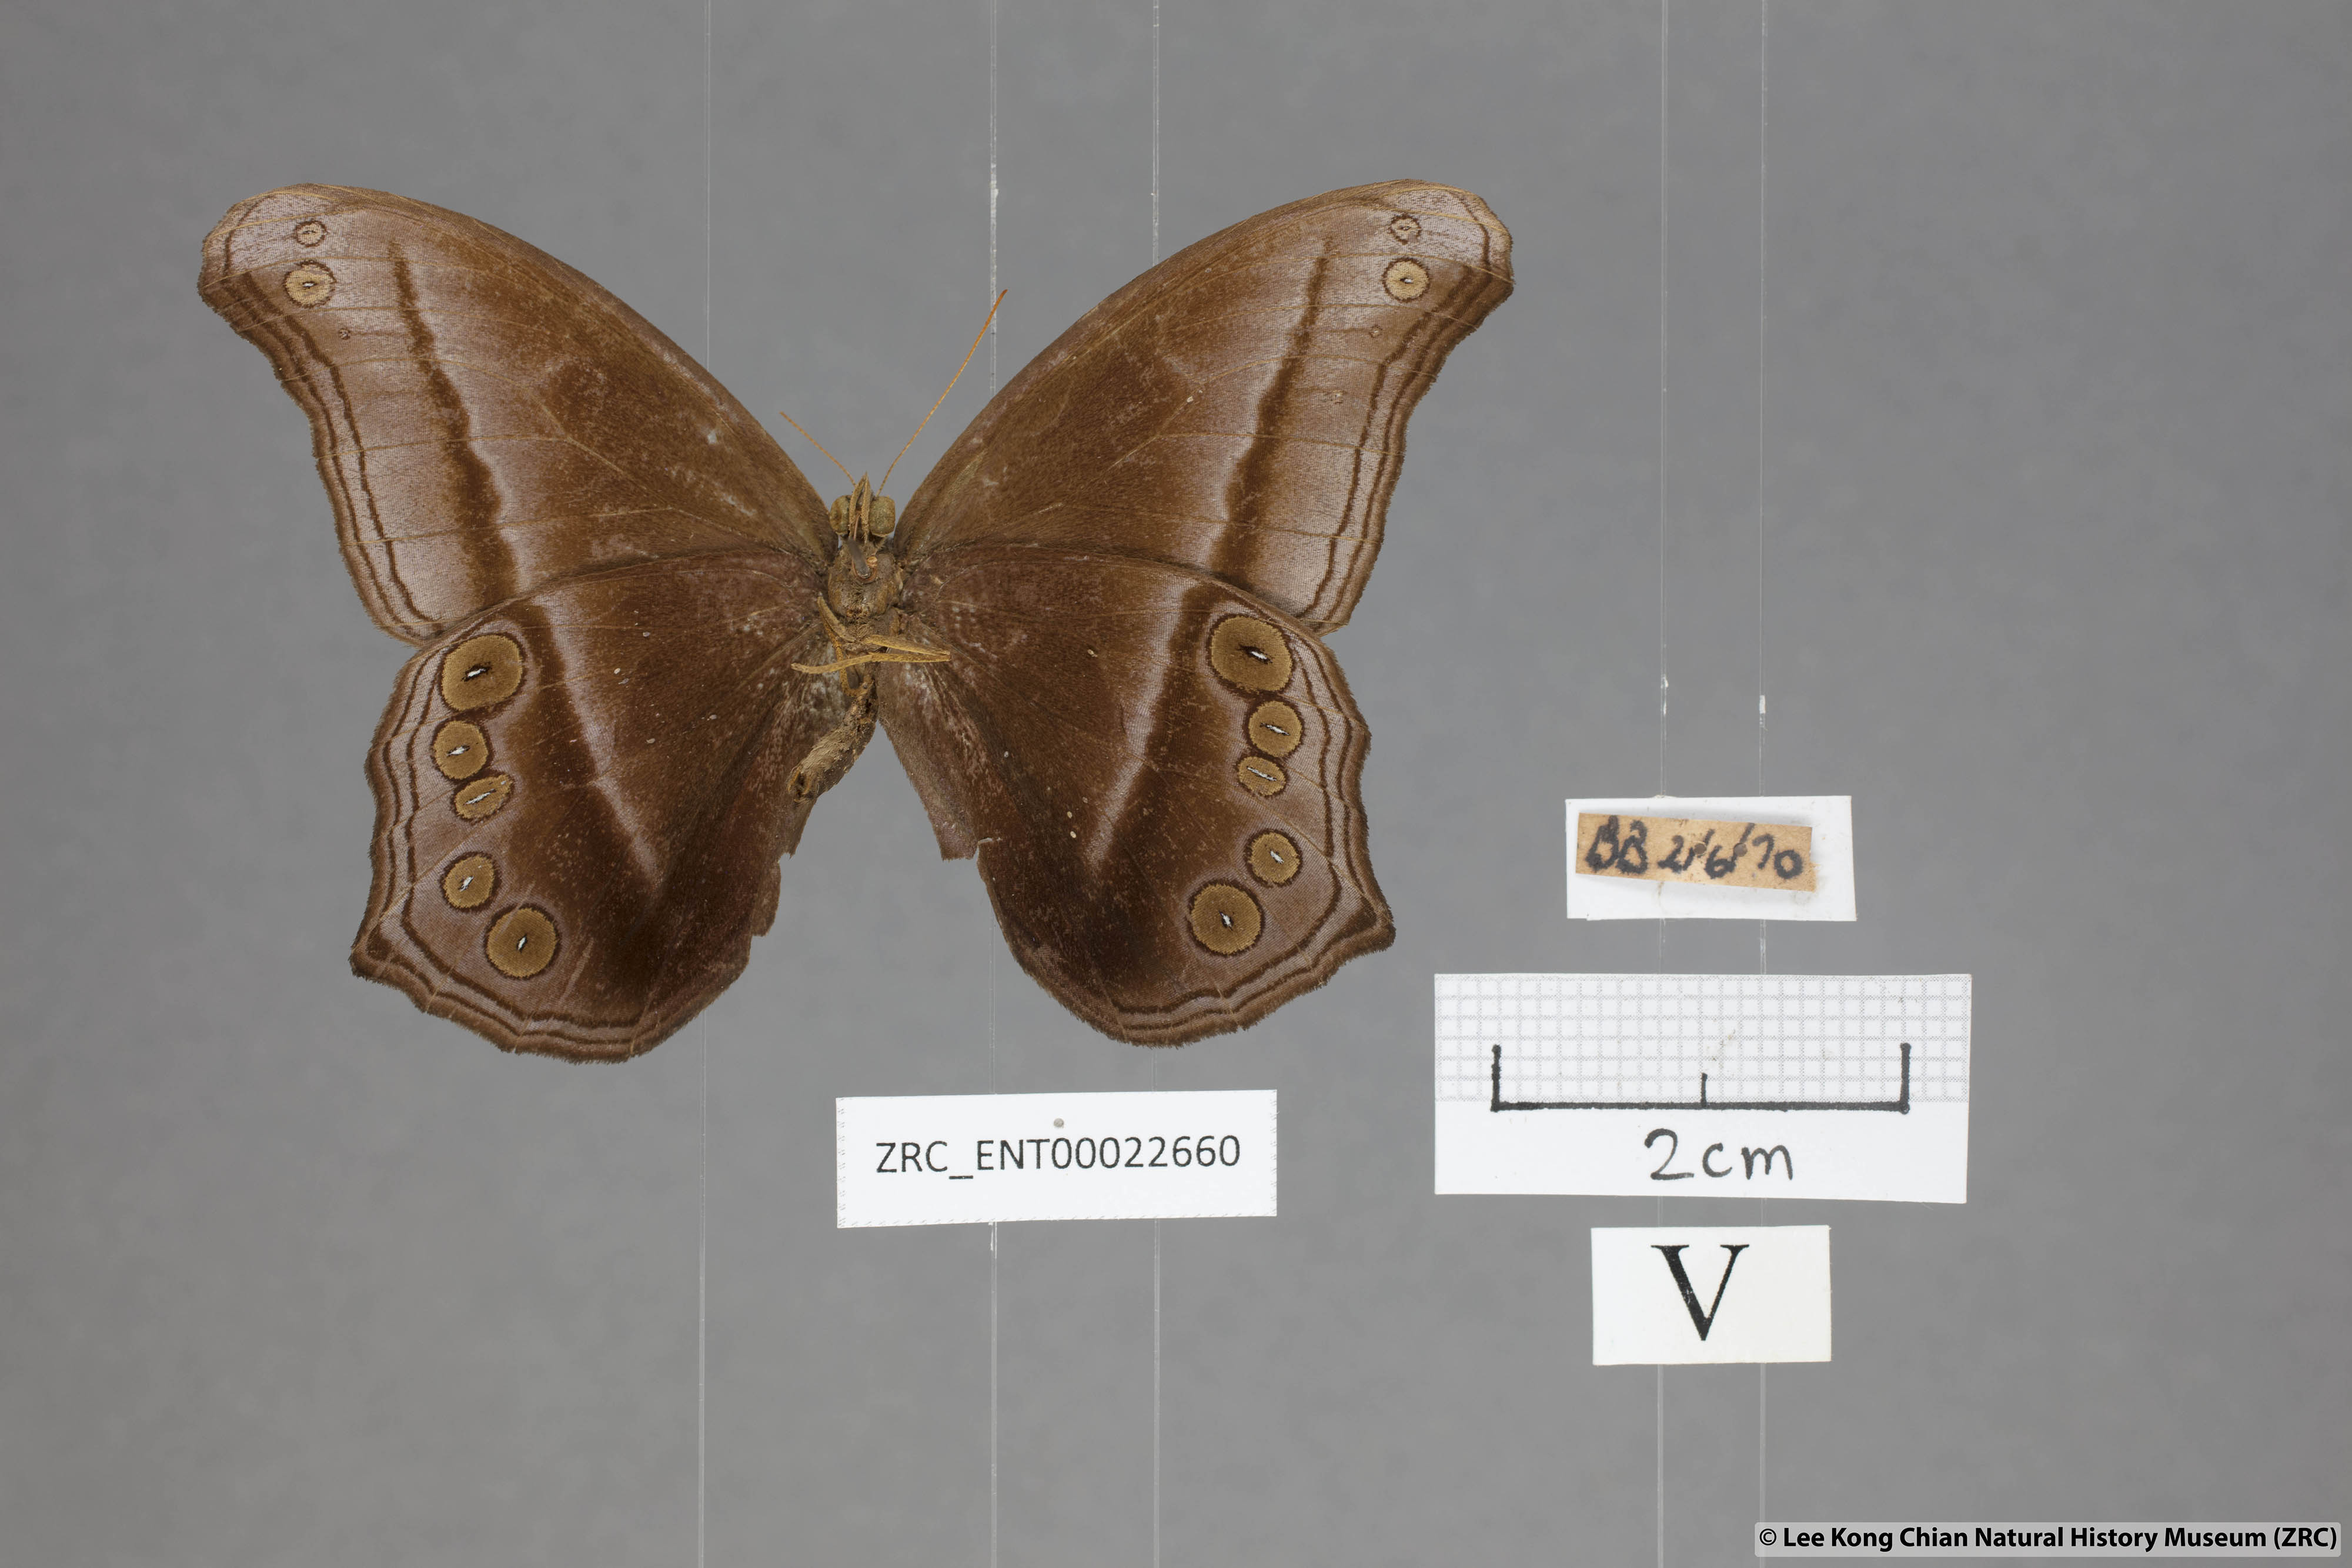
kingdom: Animalia
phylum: Arthropoda
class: Insecta
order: Lepidoptera
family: Nymphalidae
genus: Coelites
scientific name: Coelites epiminthia
